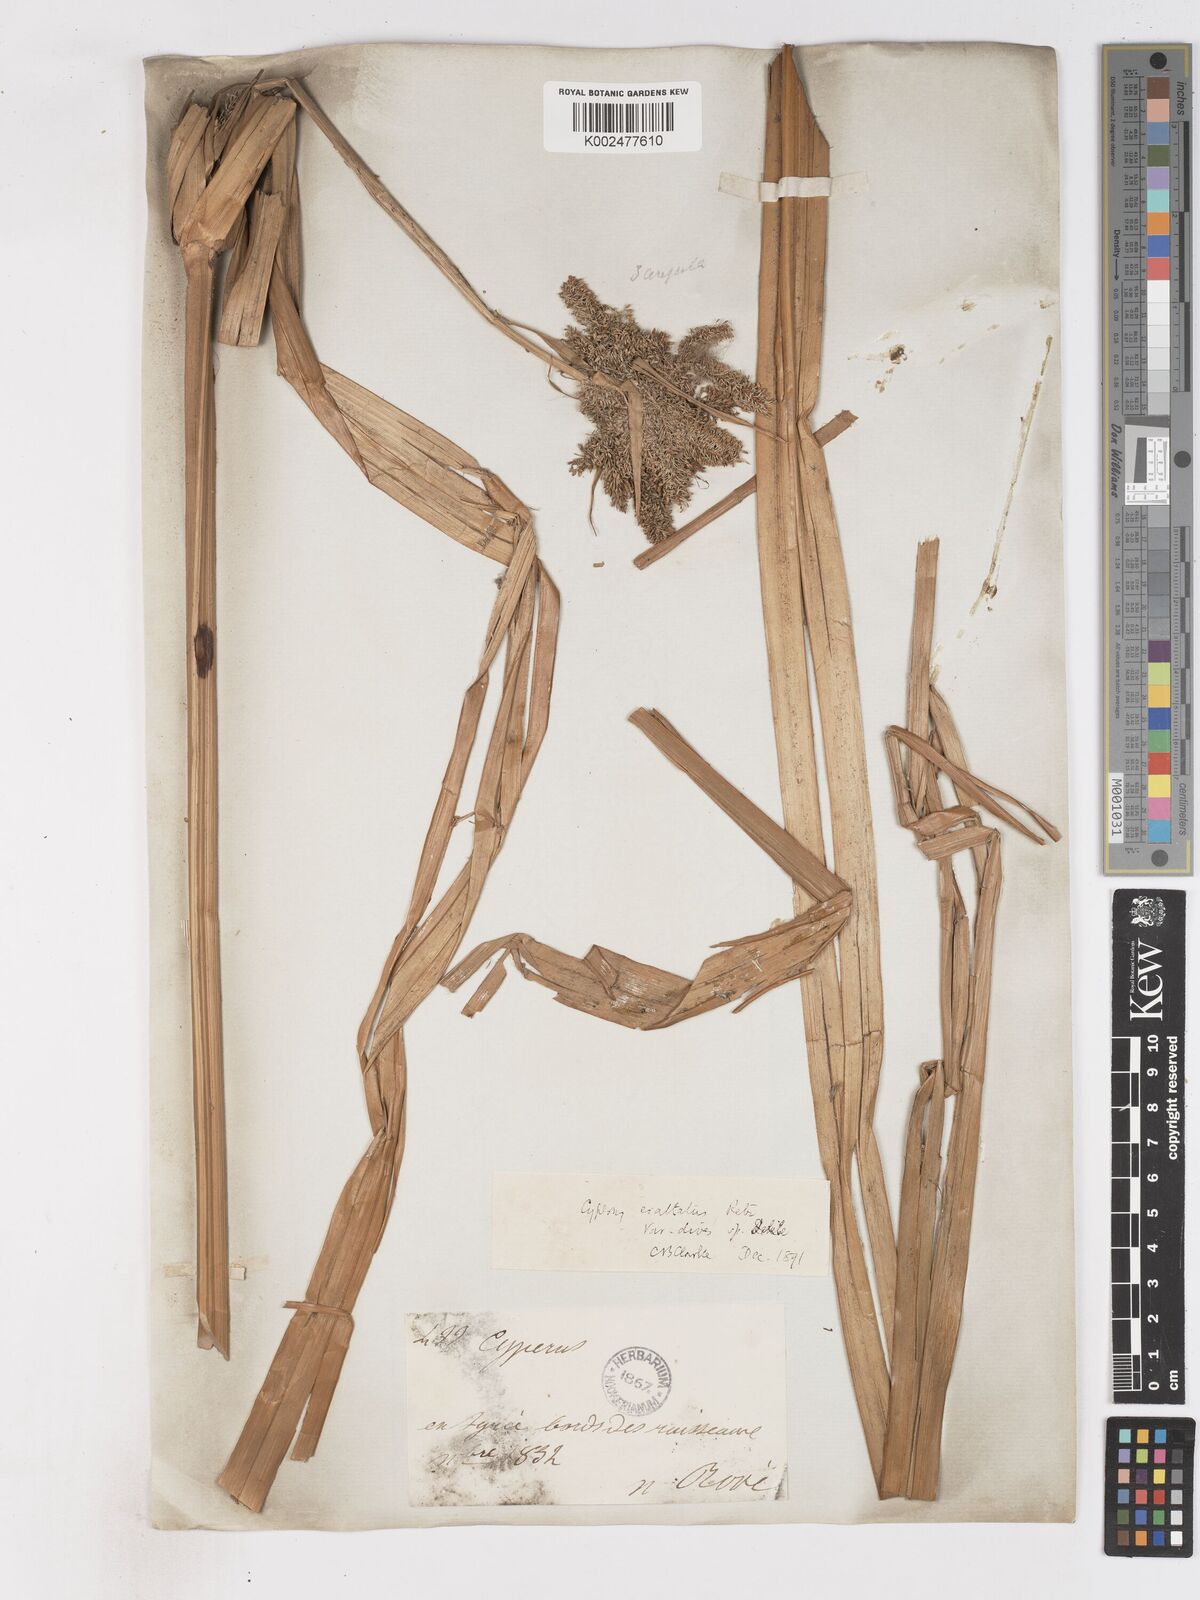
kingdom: Plantae
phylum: Tracheophyta
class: Liliopsida
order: Poales
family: Cyperaceae
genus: Cyperus
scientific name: Cyperus dives
